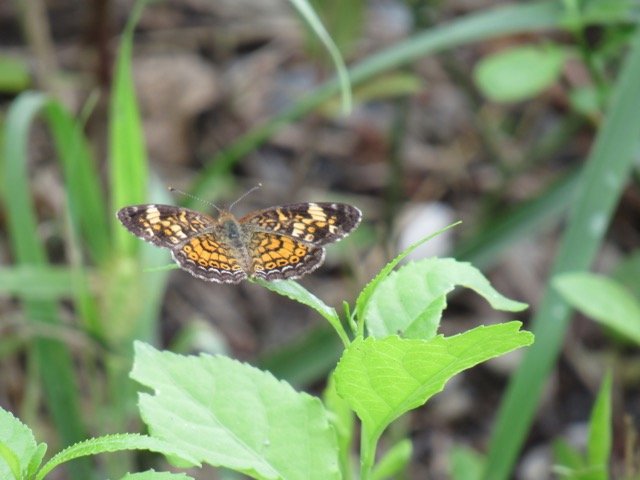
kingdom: Animalia
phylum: Arthropoda
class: Insecta
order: Lepidoptera
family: Nymphalidae
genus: Phyciodes
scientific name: Phyciodes tharos
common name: Pearl Crescent
